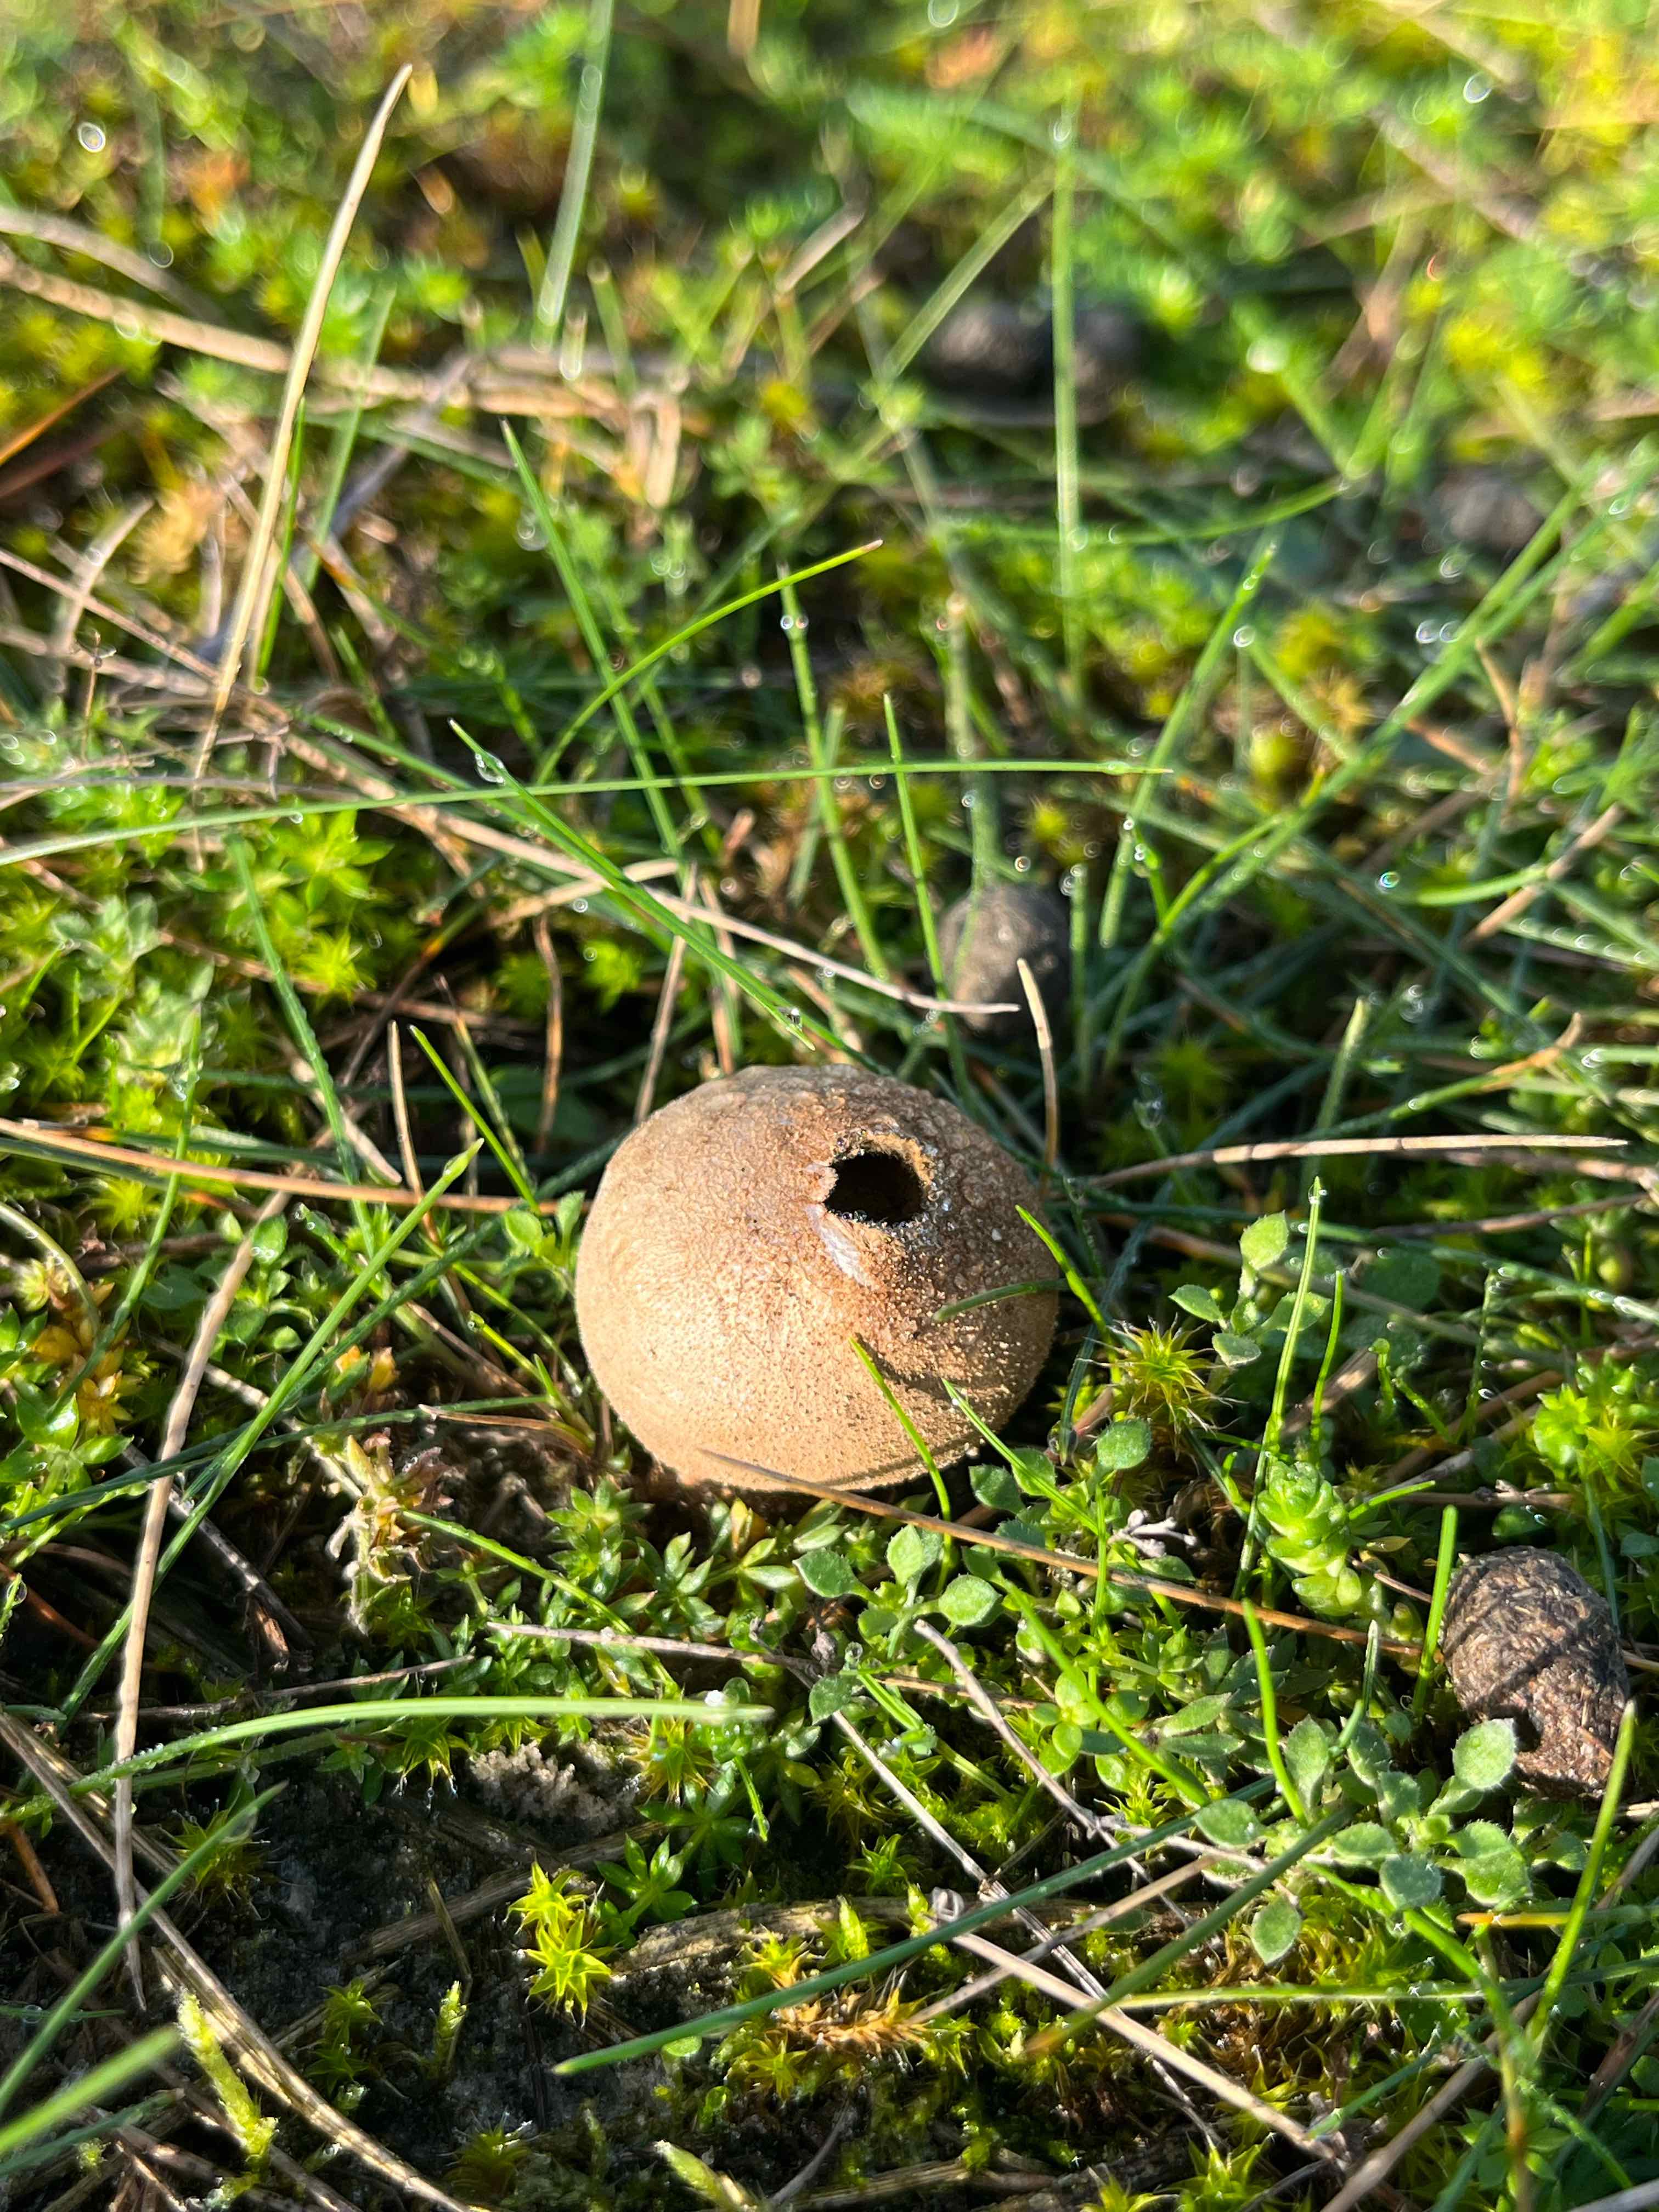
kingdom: Fungi
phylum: Basidiomycota
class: Agaricomycetes
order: Agaricales
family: Lycoperdaceae
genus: Bovista
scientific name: Bovista
